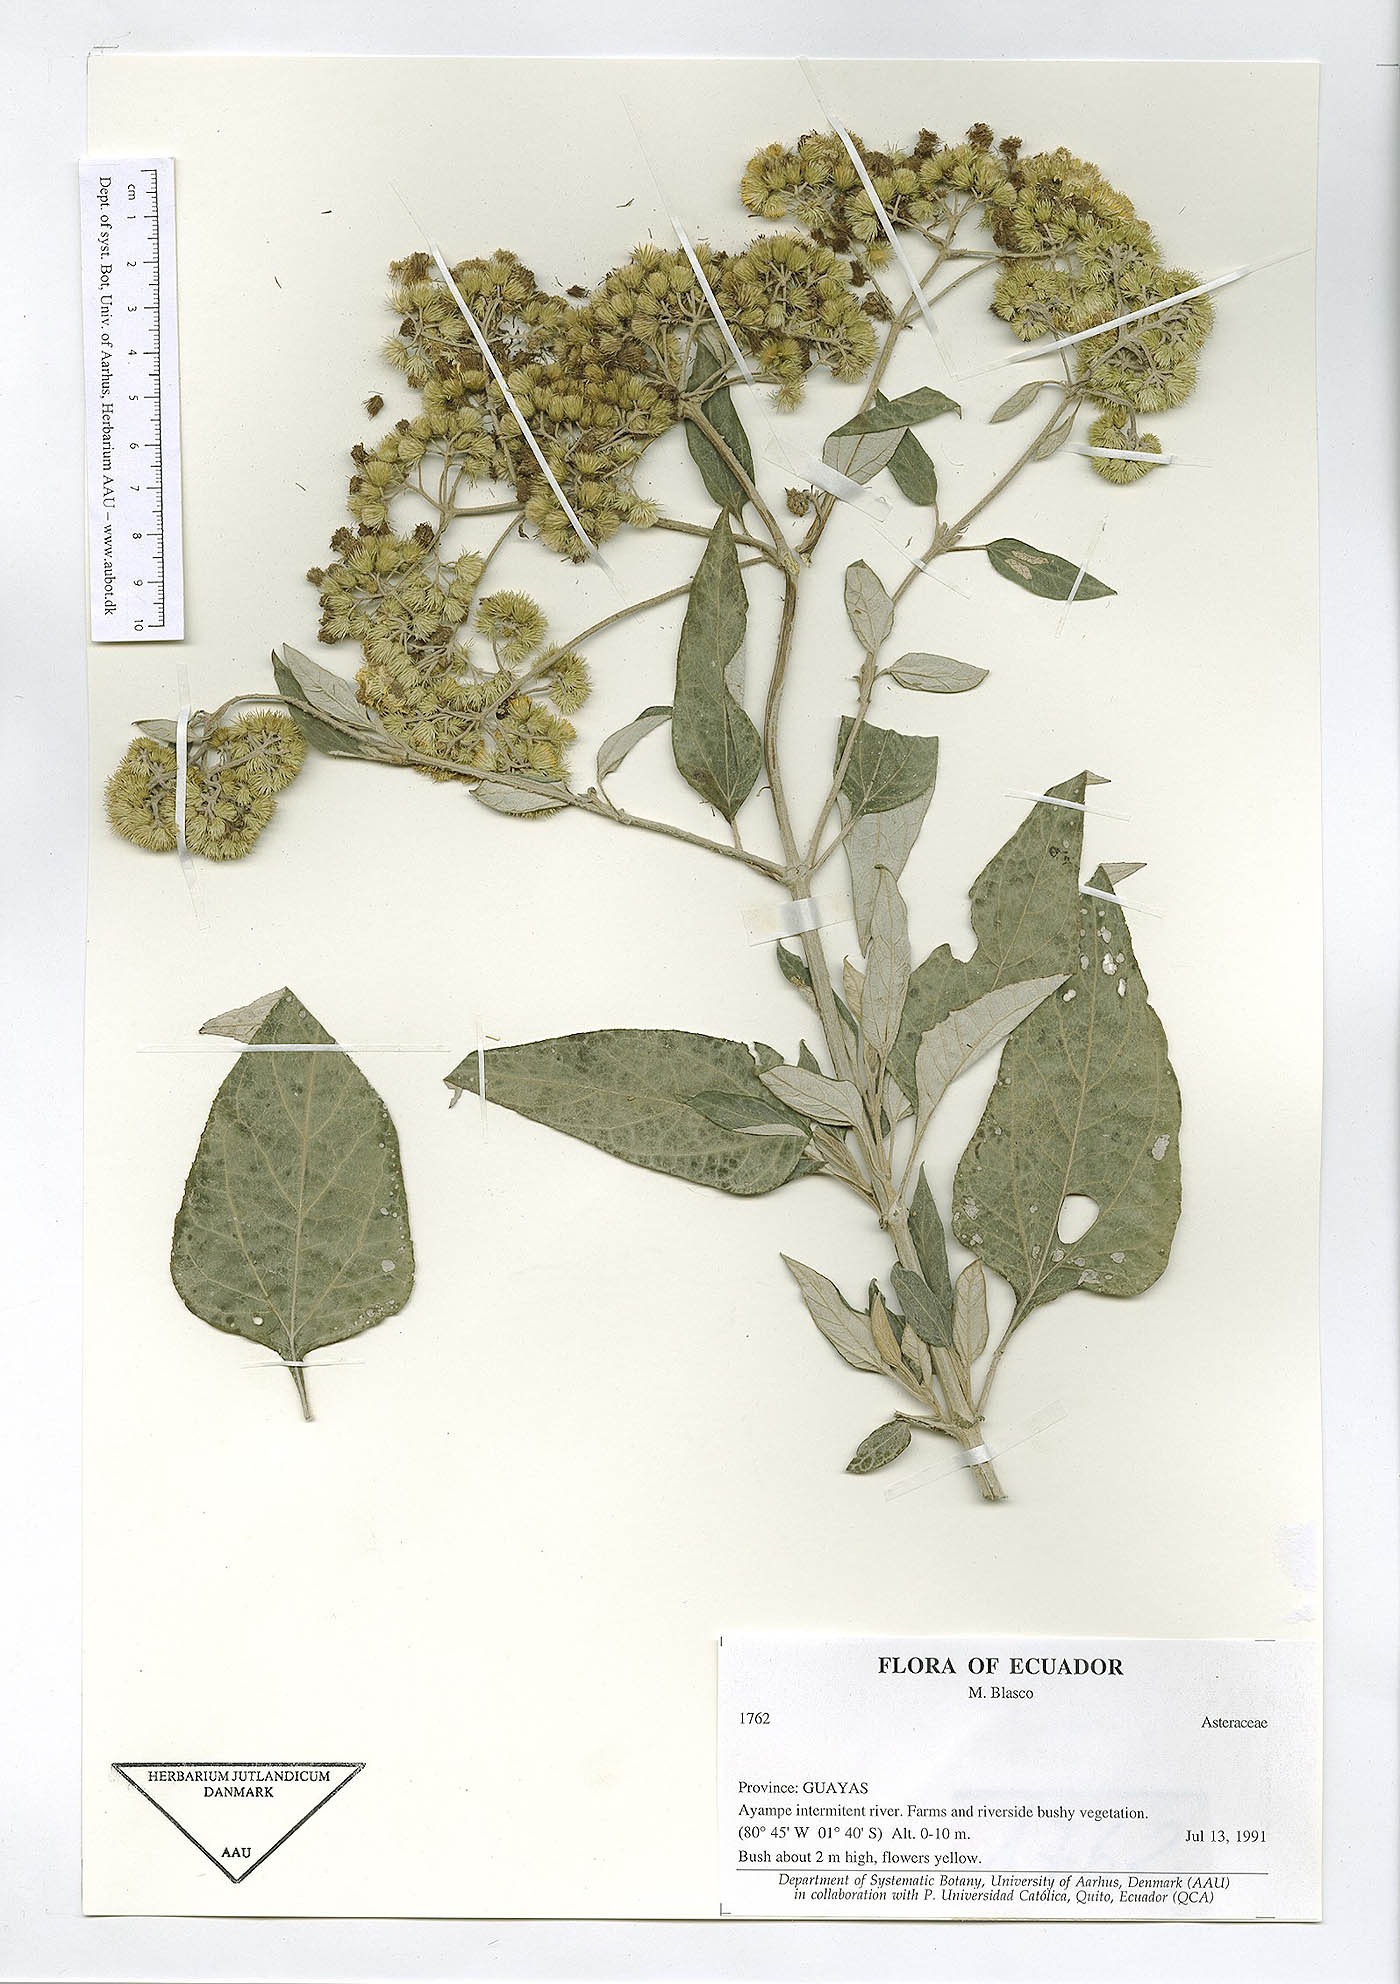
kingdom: Plantae
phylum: Tracheophyta
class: Magnoliopsida
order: Asterales
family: Asteraceae
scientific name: Asteraceae
